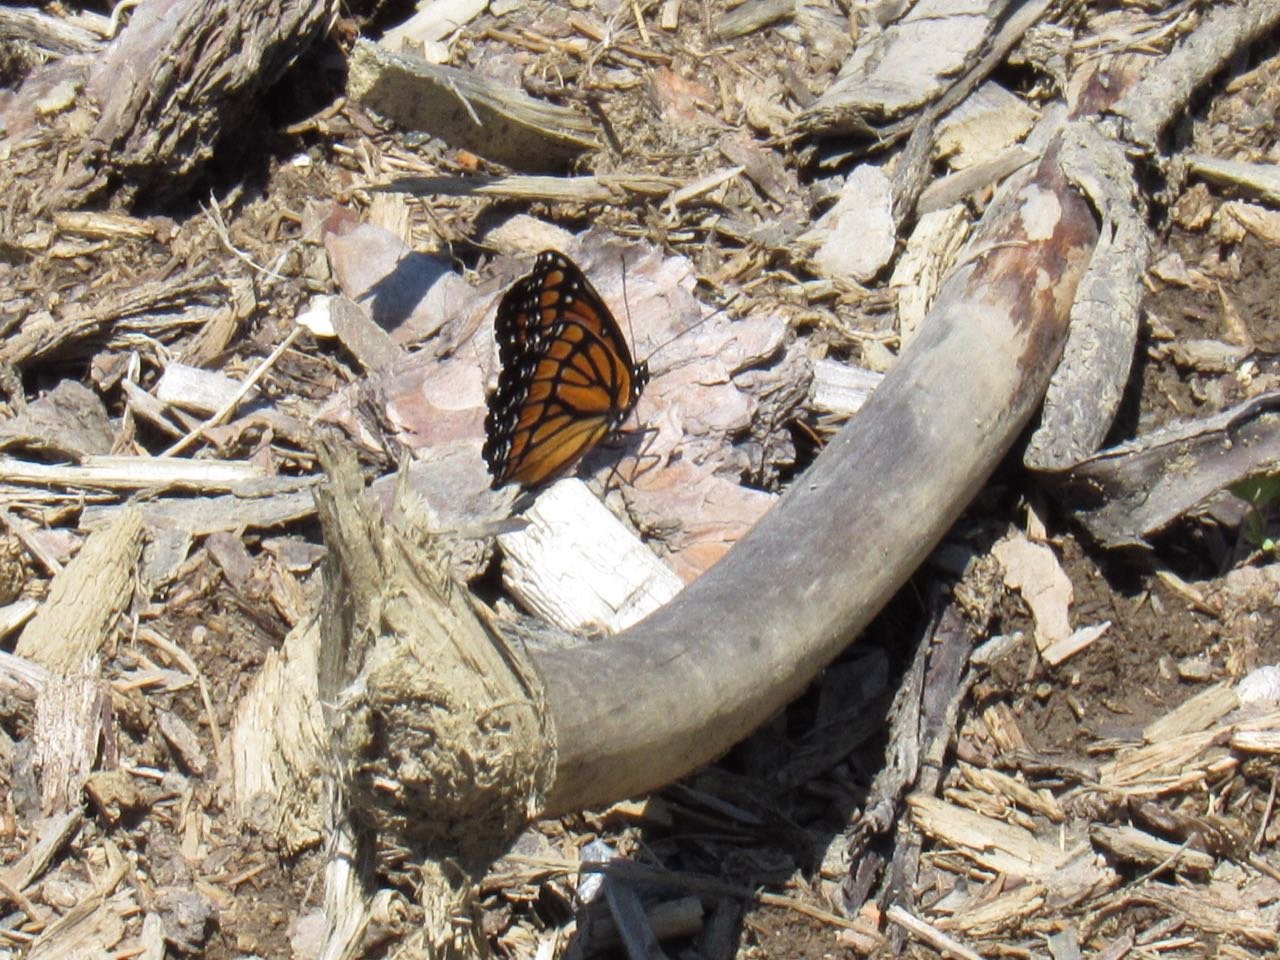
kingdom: Animalia
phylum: Arthropoda
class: Insecta
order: Lepidoptera
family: Nymphalidae
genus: Limenitis
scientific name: Limenitis archippus
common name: Viceroy
